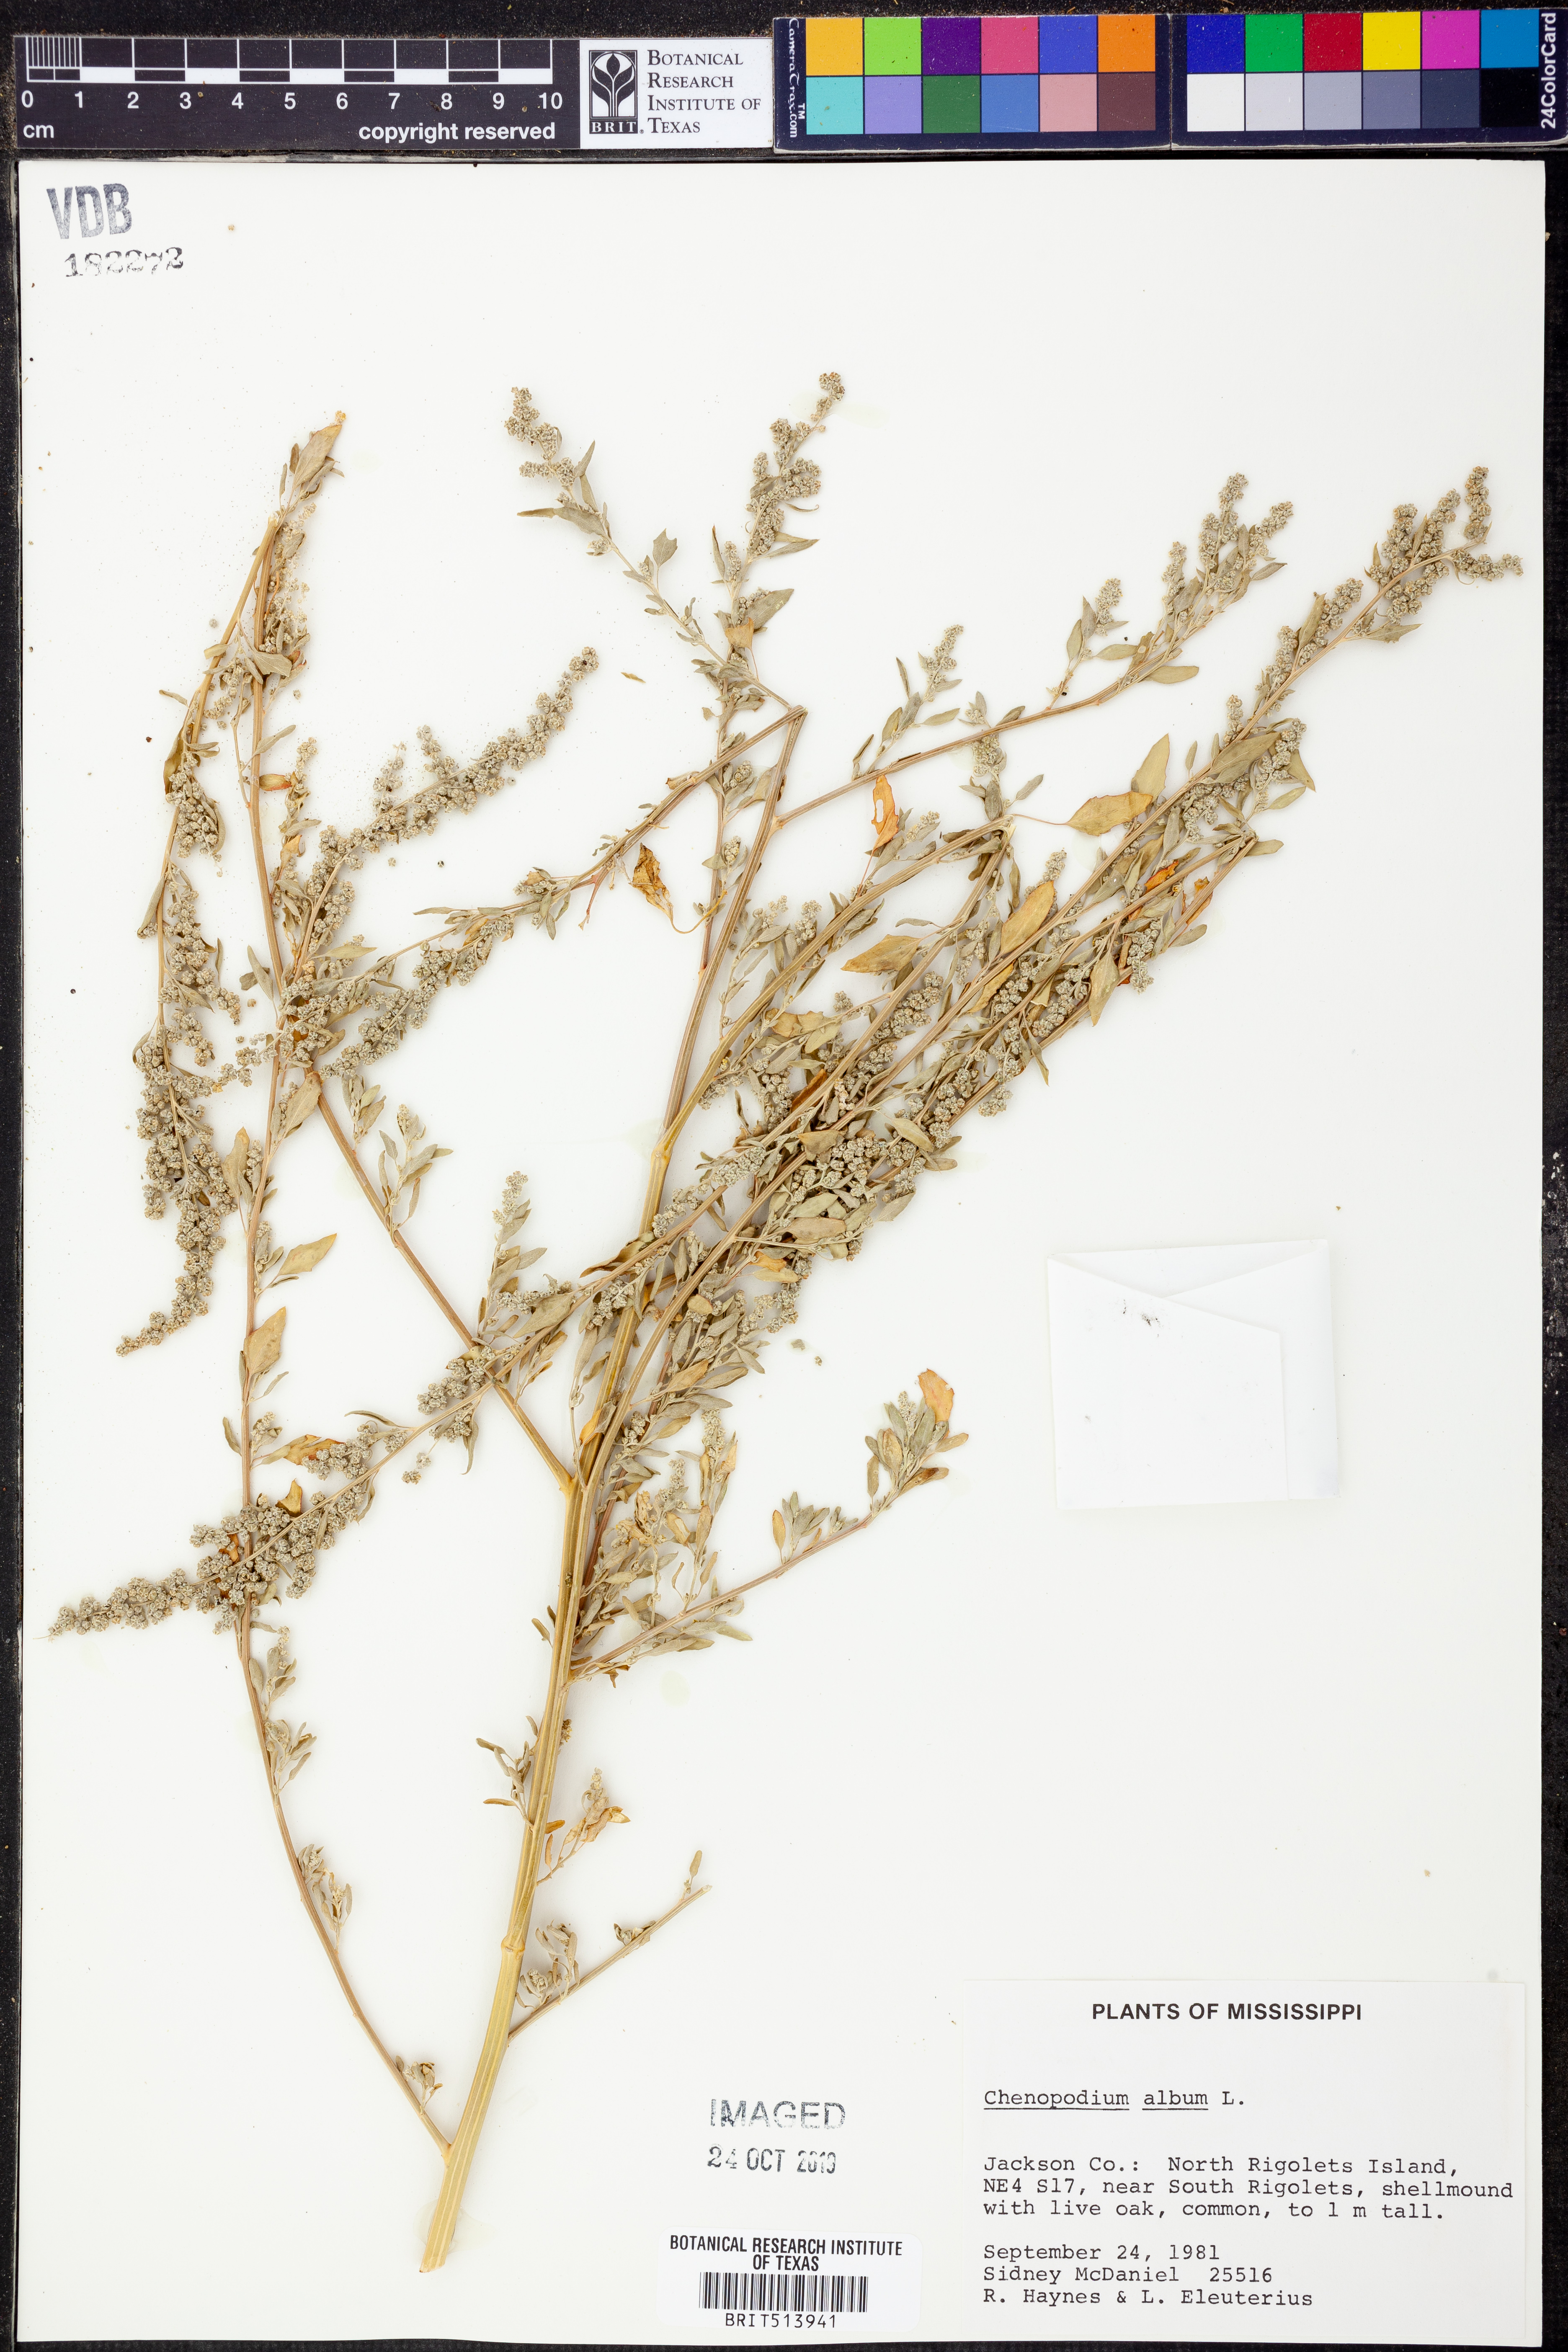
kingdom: Plantae
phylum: Tracheophyta
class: Magnoliopsida
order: Caryophyllales
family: Amaranthaceae
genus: Chenopodium
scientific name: Chenopodium album
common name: Fat-hen
